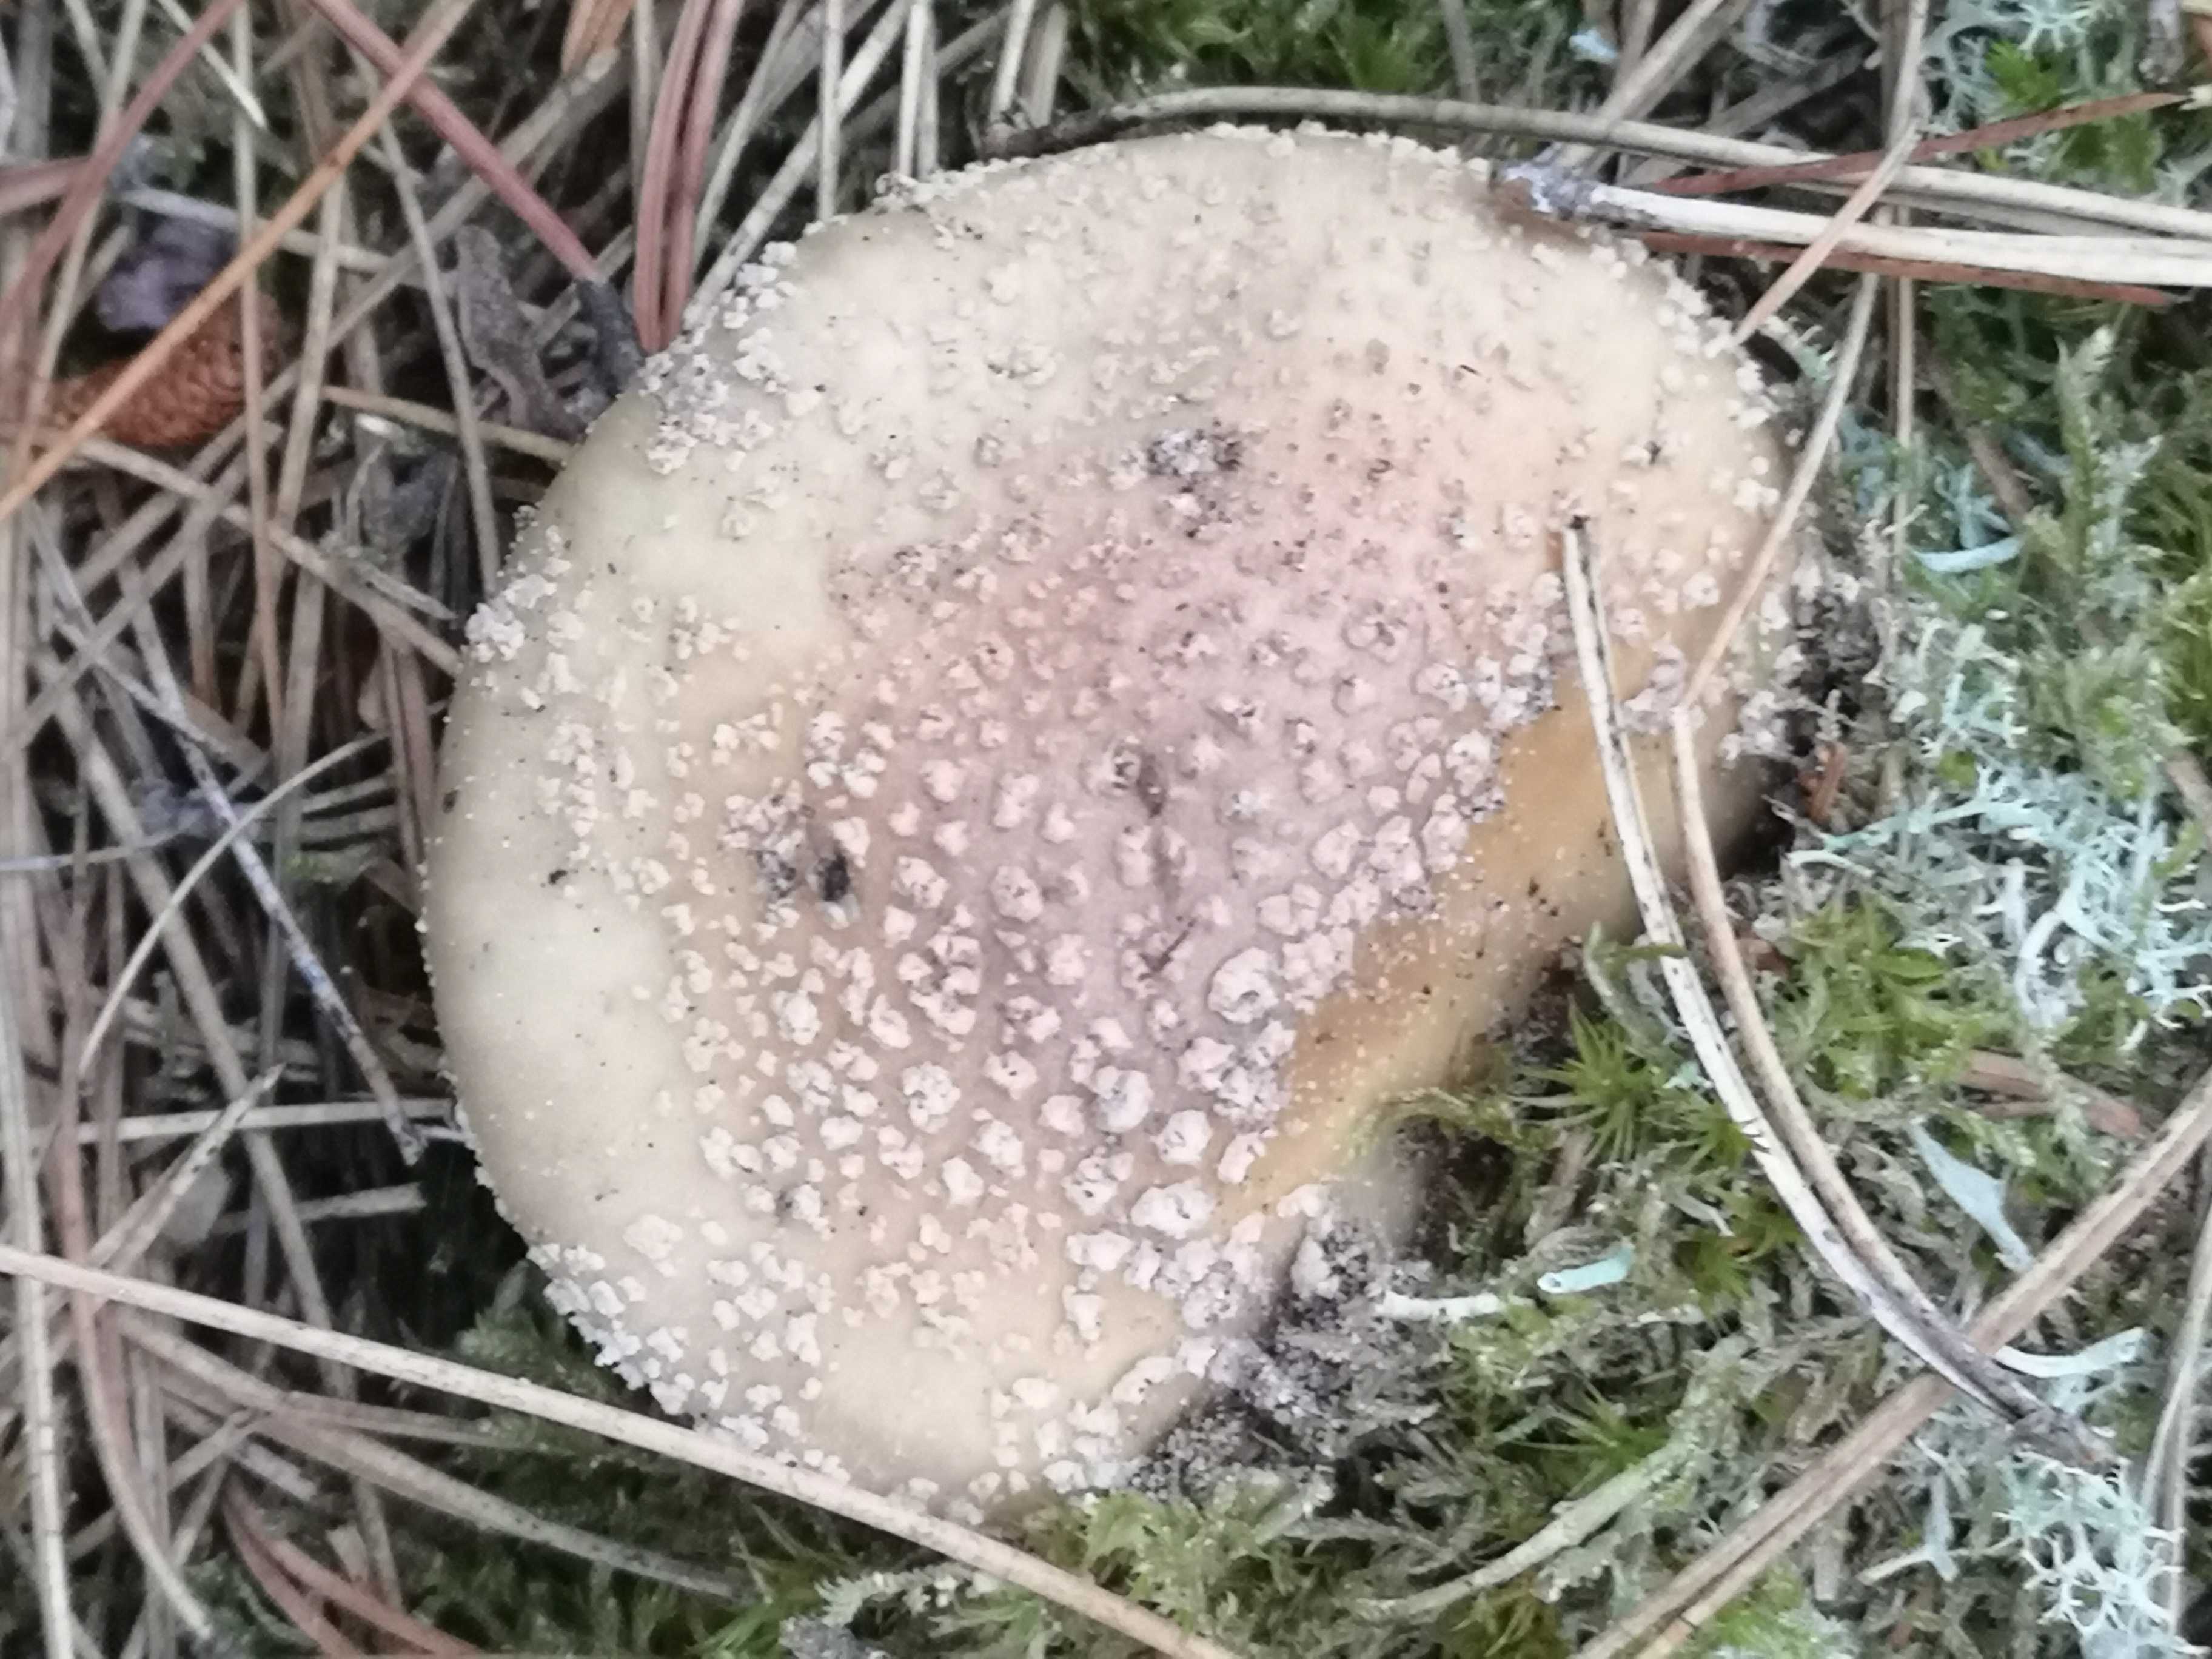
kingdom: Fungi
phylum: Basidiomycota
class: Agaricomycetes
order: Agaricales
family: Amanitaceae
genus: Amanita
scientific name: Amanita rubescens
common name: rødmende fluesvamp
